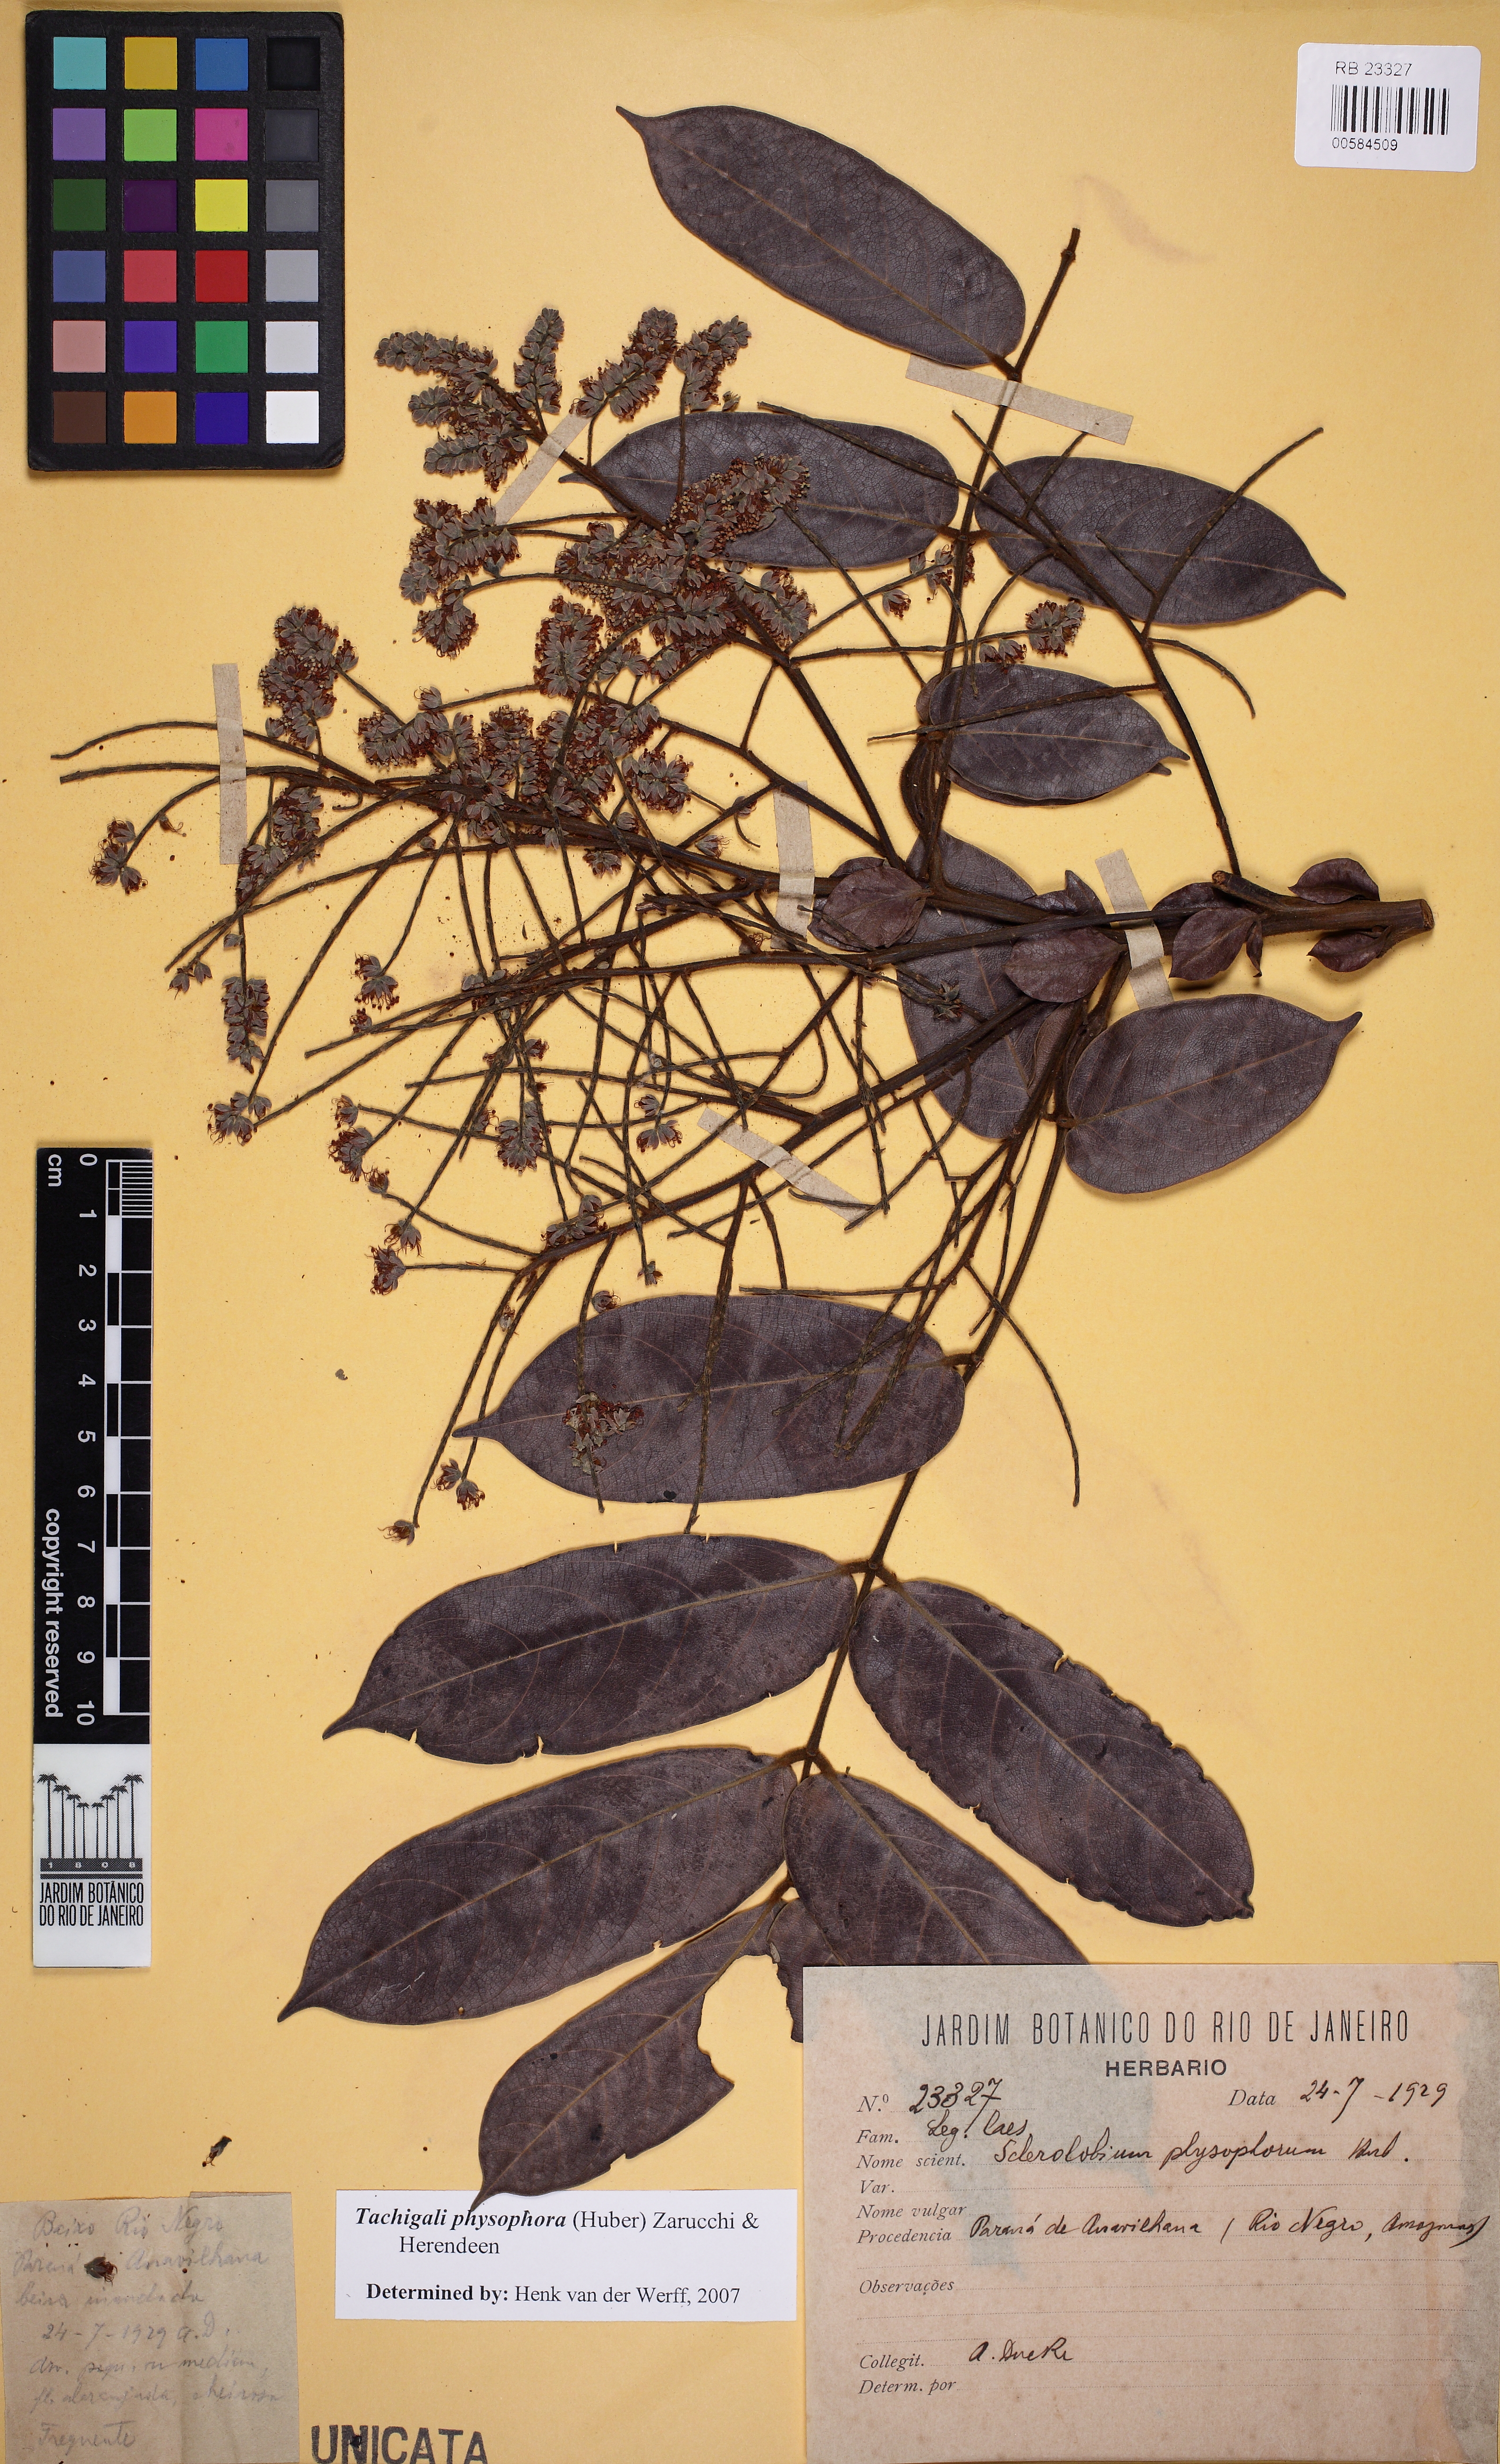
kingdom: Plantae
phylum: Tracheophyta
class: Magnoliopsida
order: Fabales
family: Fabaceae
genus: Tachigali
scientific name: Tachigali physophora
